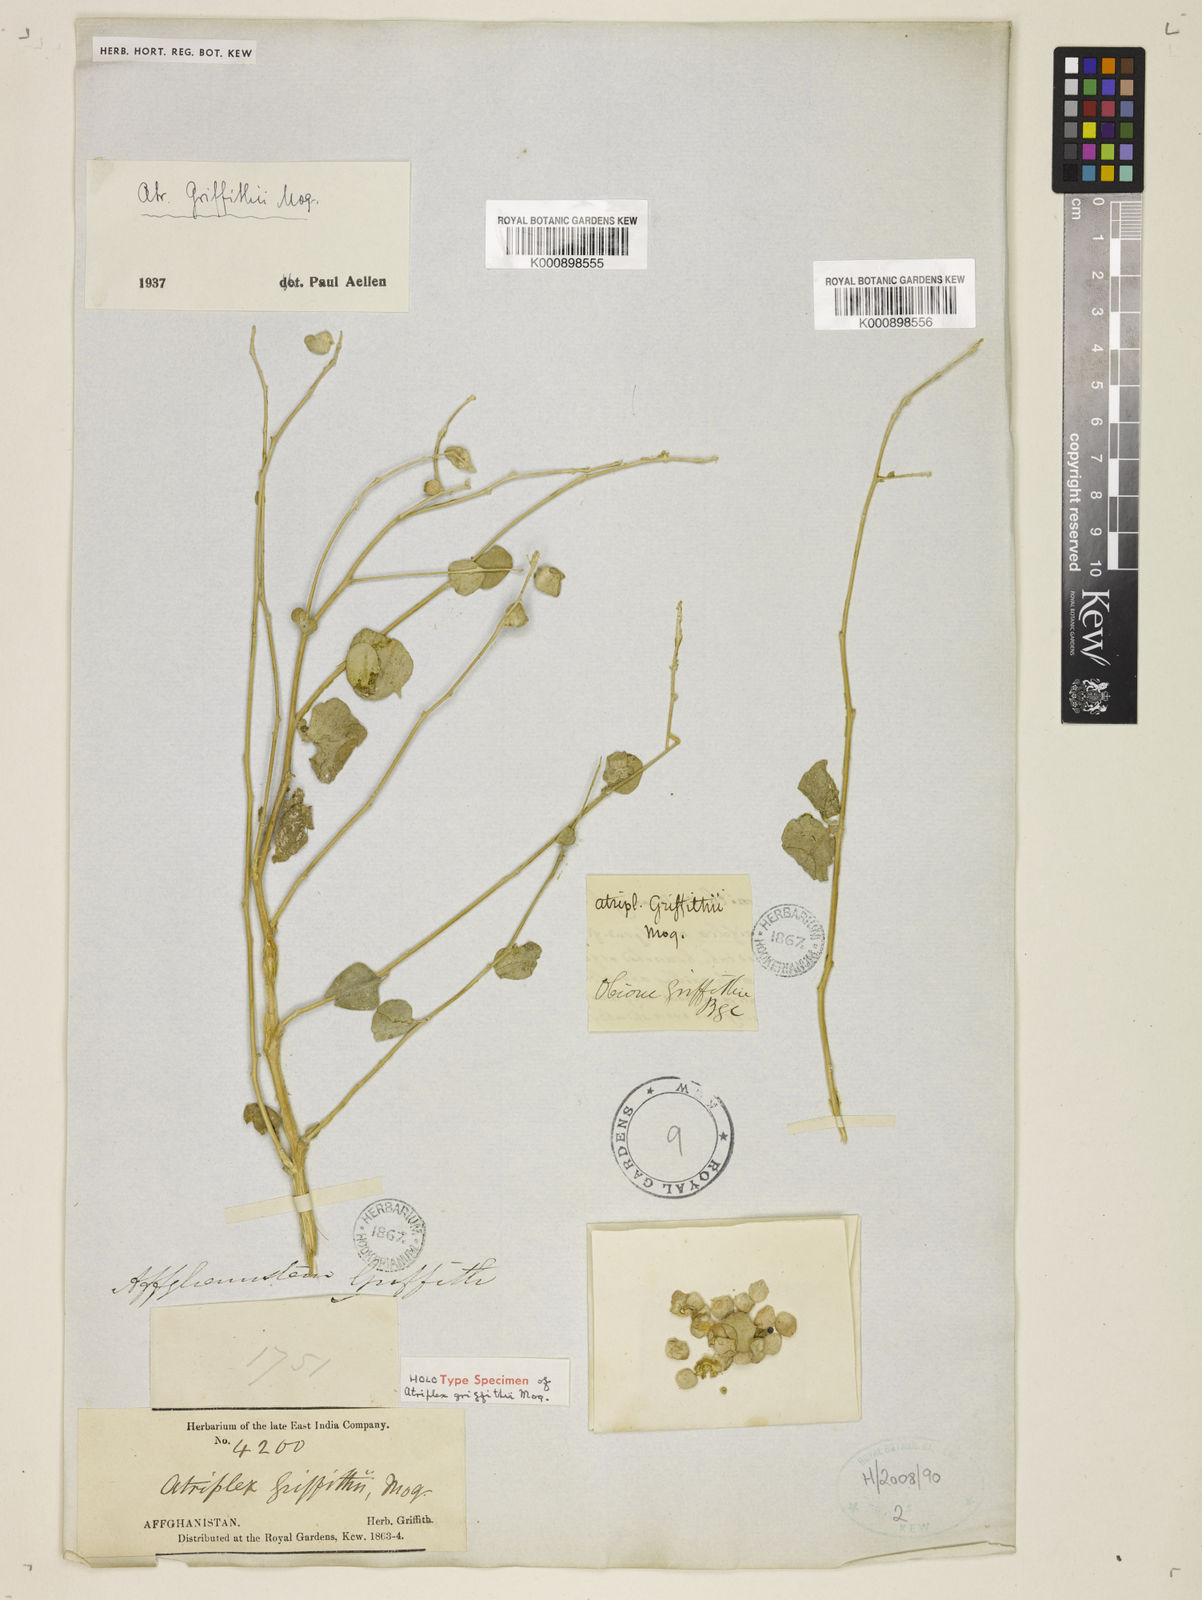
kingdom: Plantae
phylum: Tracheophyta
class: Magnoliopsida
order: Caryophyllales
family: Amaranthaceae
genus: Atriplex
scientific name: Atriplex griffithii
